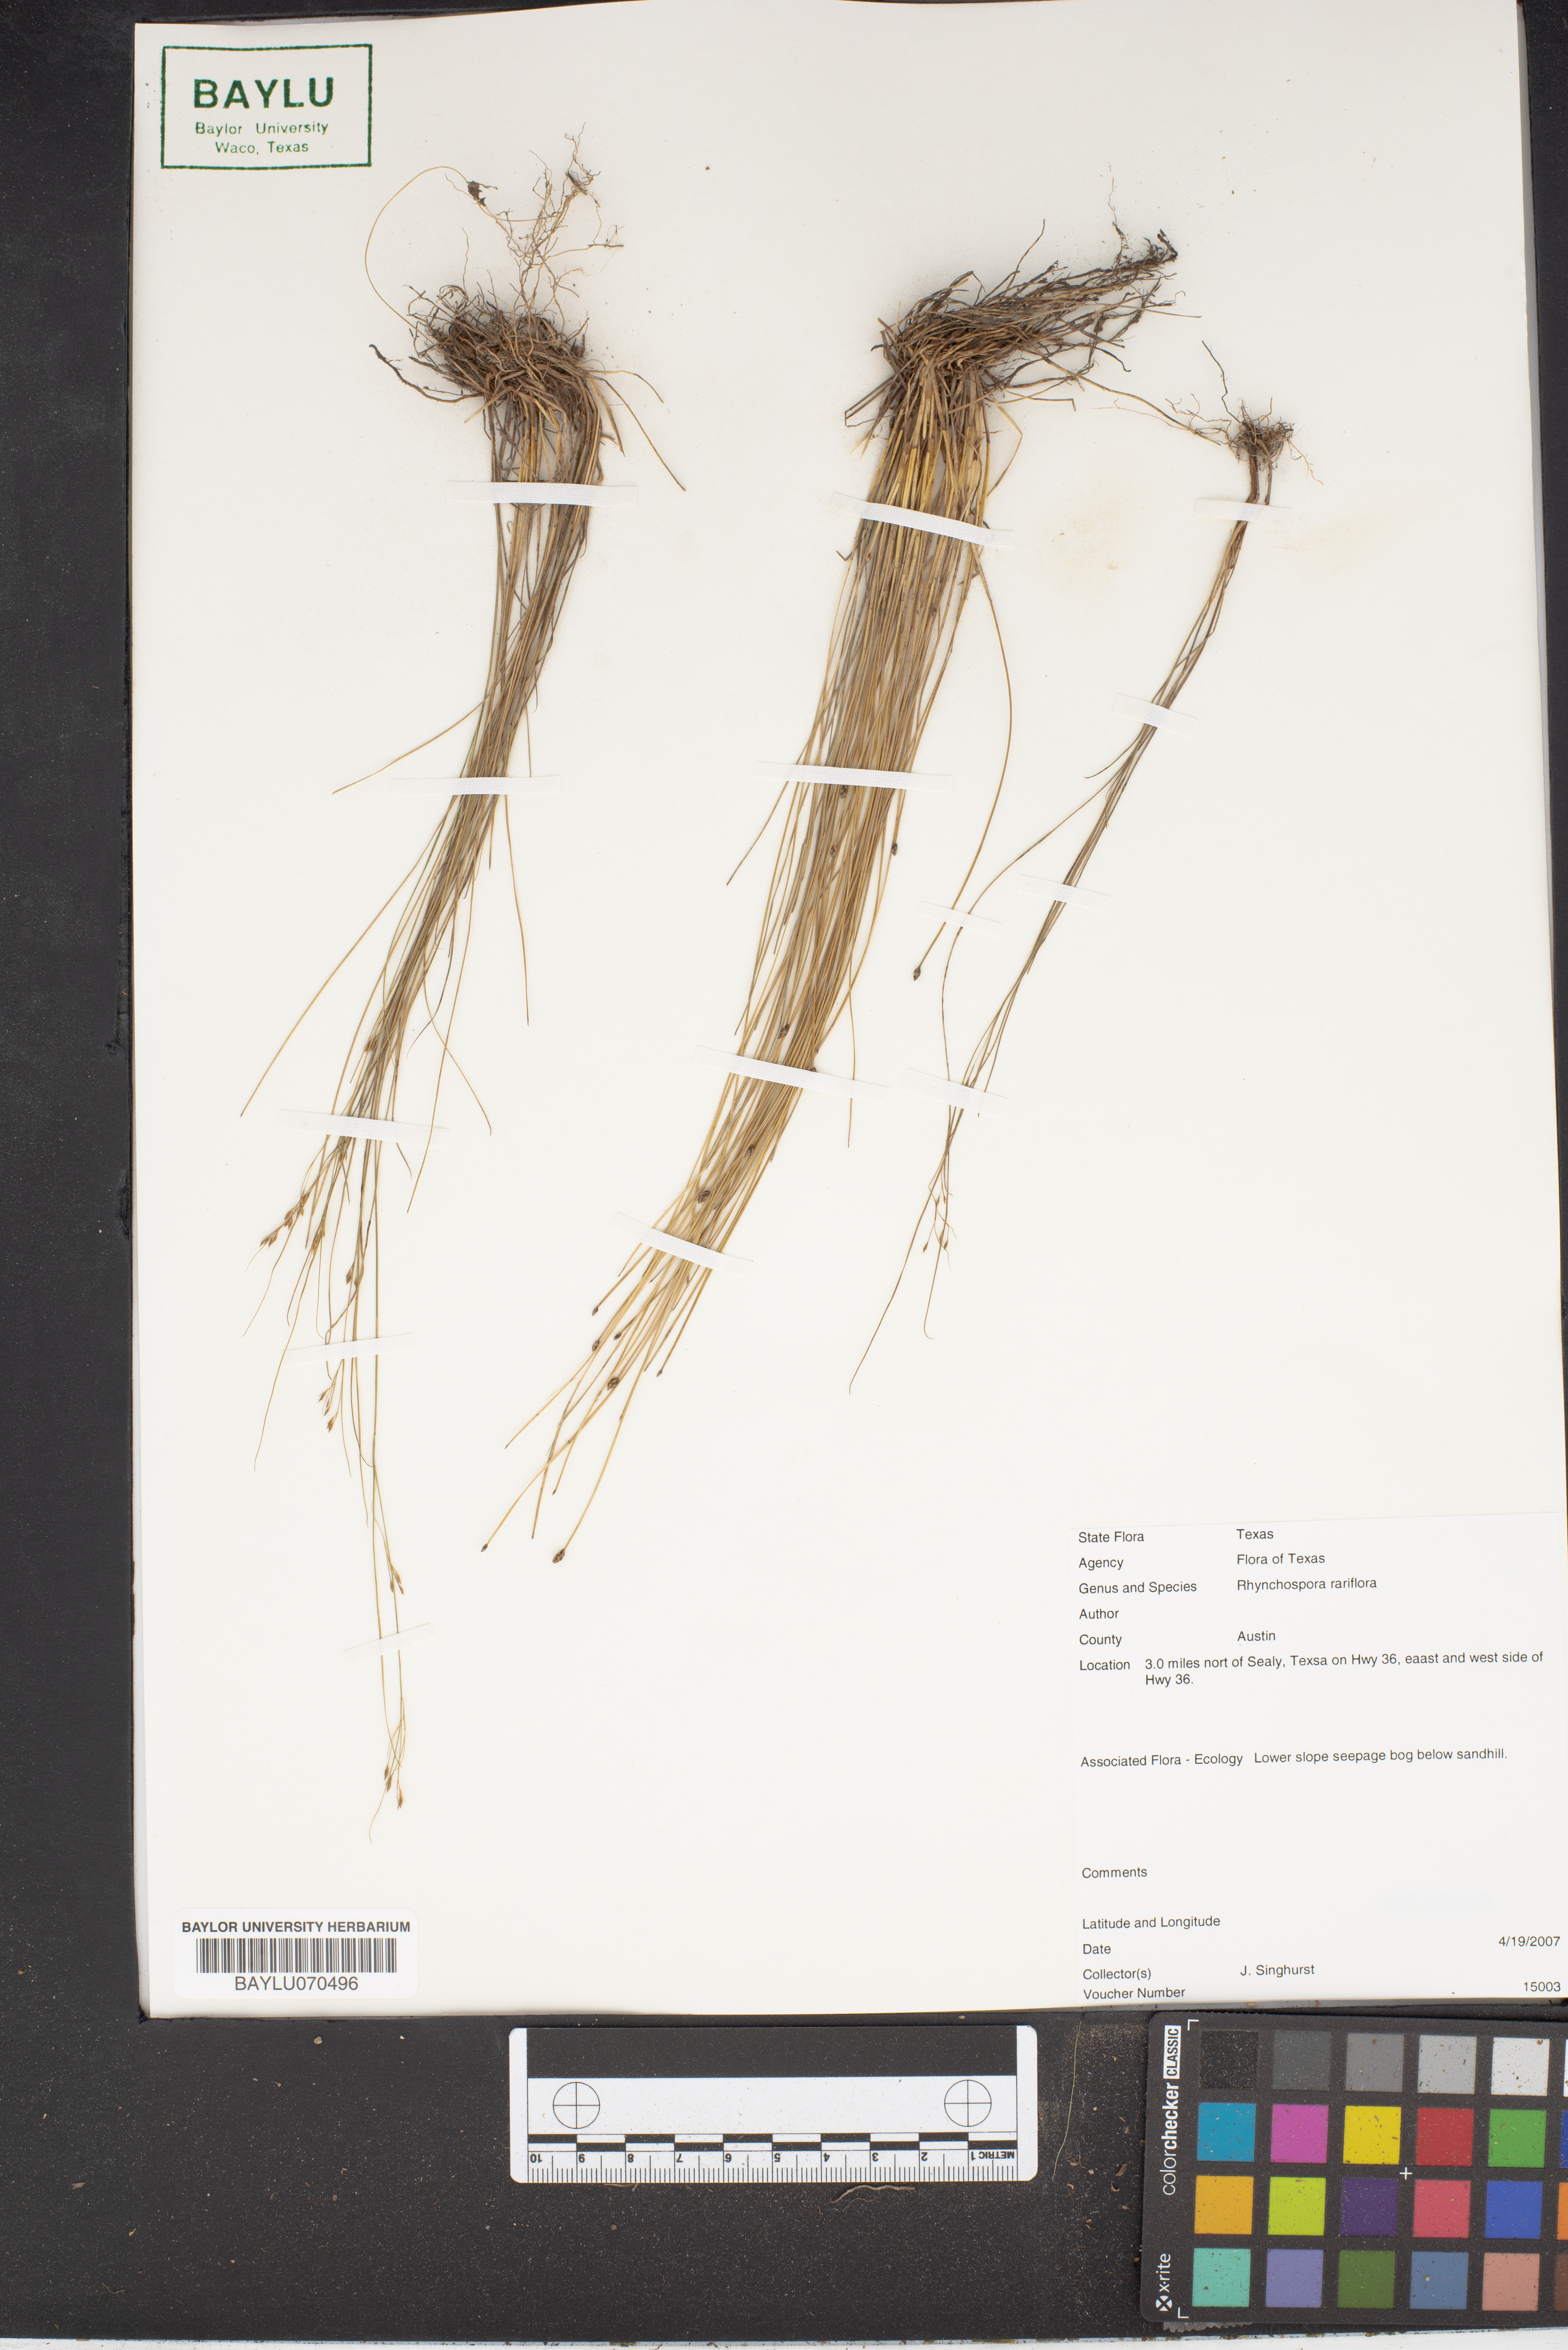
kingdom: Plantae
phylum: Tracheophyta
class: Liliopsida
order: Poales
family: Cyperaceae
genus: Rhynchospora
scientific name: Rhynchospora rariflora
